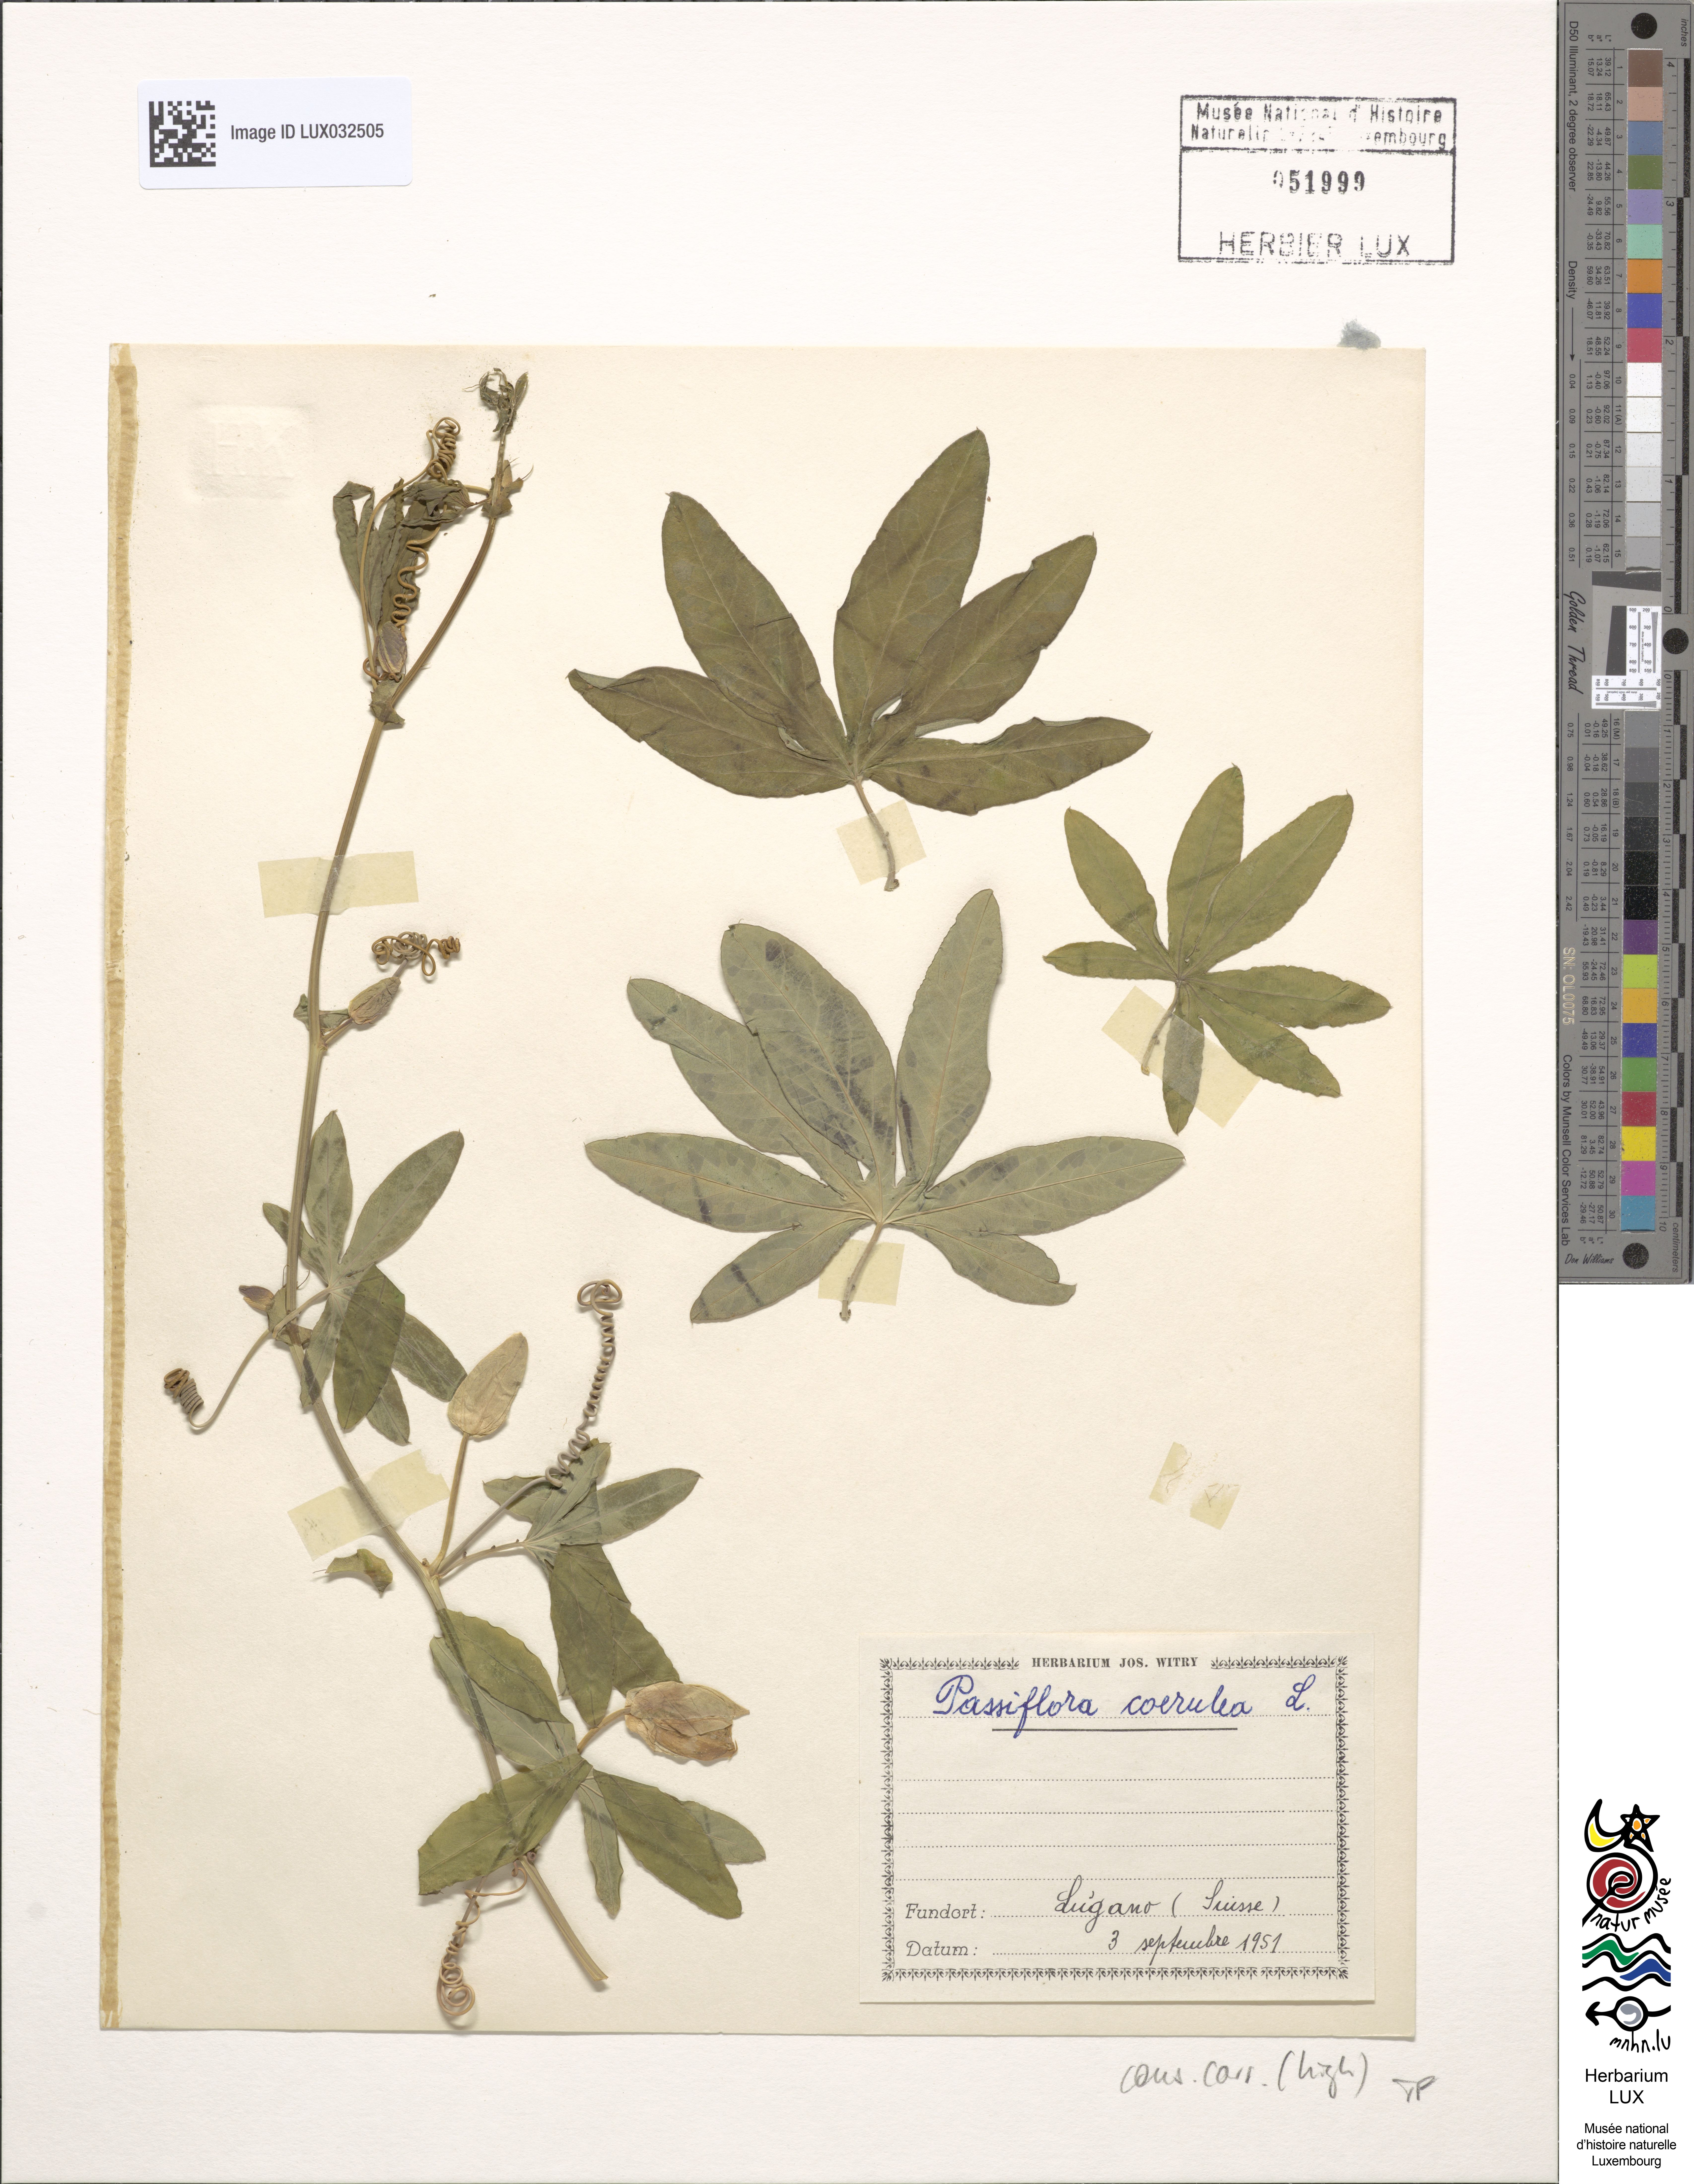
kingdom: Plantae
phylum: Tracheophyta
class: Magnoliopsida
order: Malpighiales
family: Passifloraceae
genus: Passiflora
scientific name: Passiflora caerulea
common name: Blue passionflower
